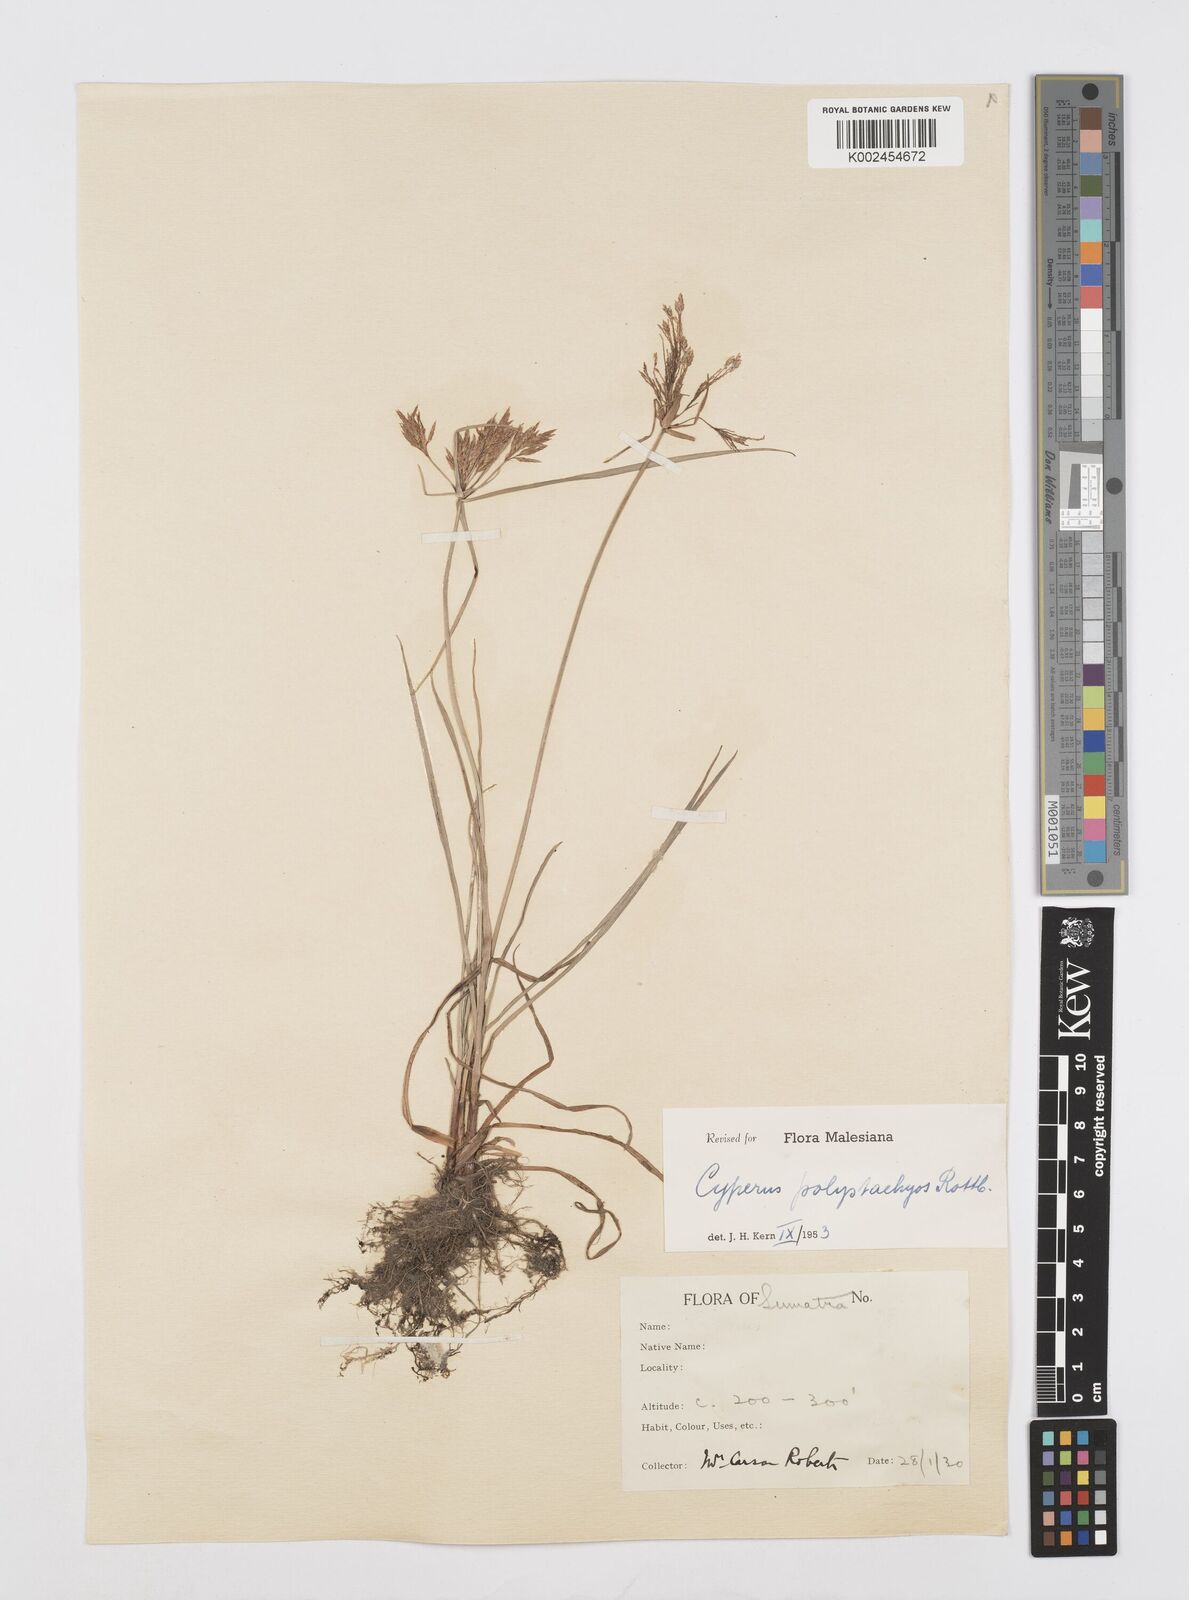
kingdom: Plantae
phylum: Tracheophyta
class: Liliopsida
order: Poales
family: Cyperaceae
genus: Cyperus
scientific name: Cyperus polystachyos
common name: Bunchy flat sedge
